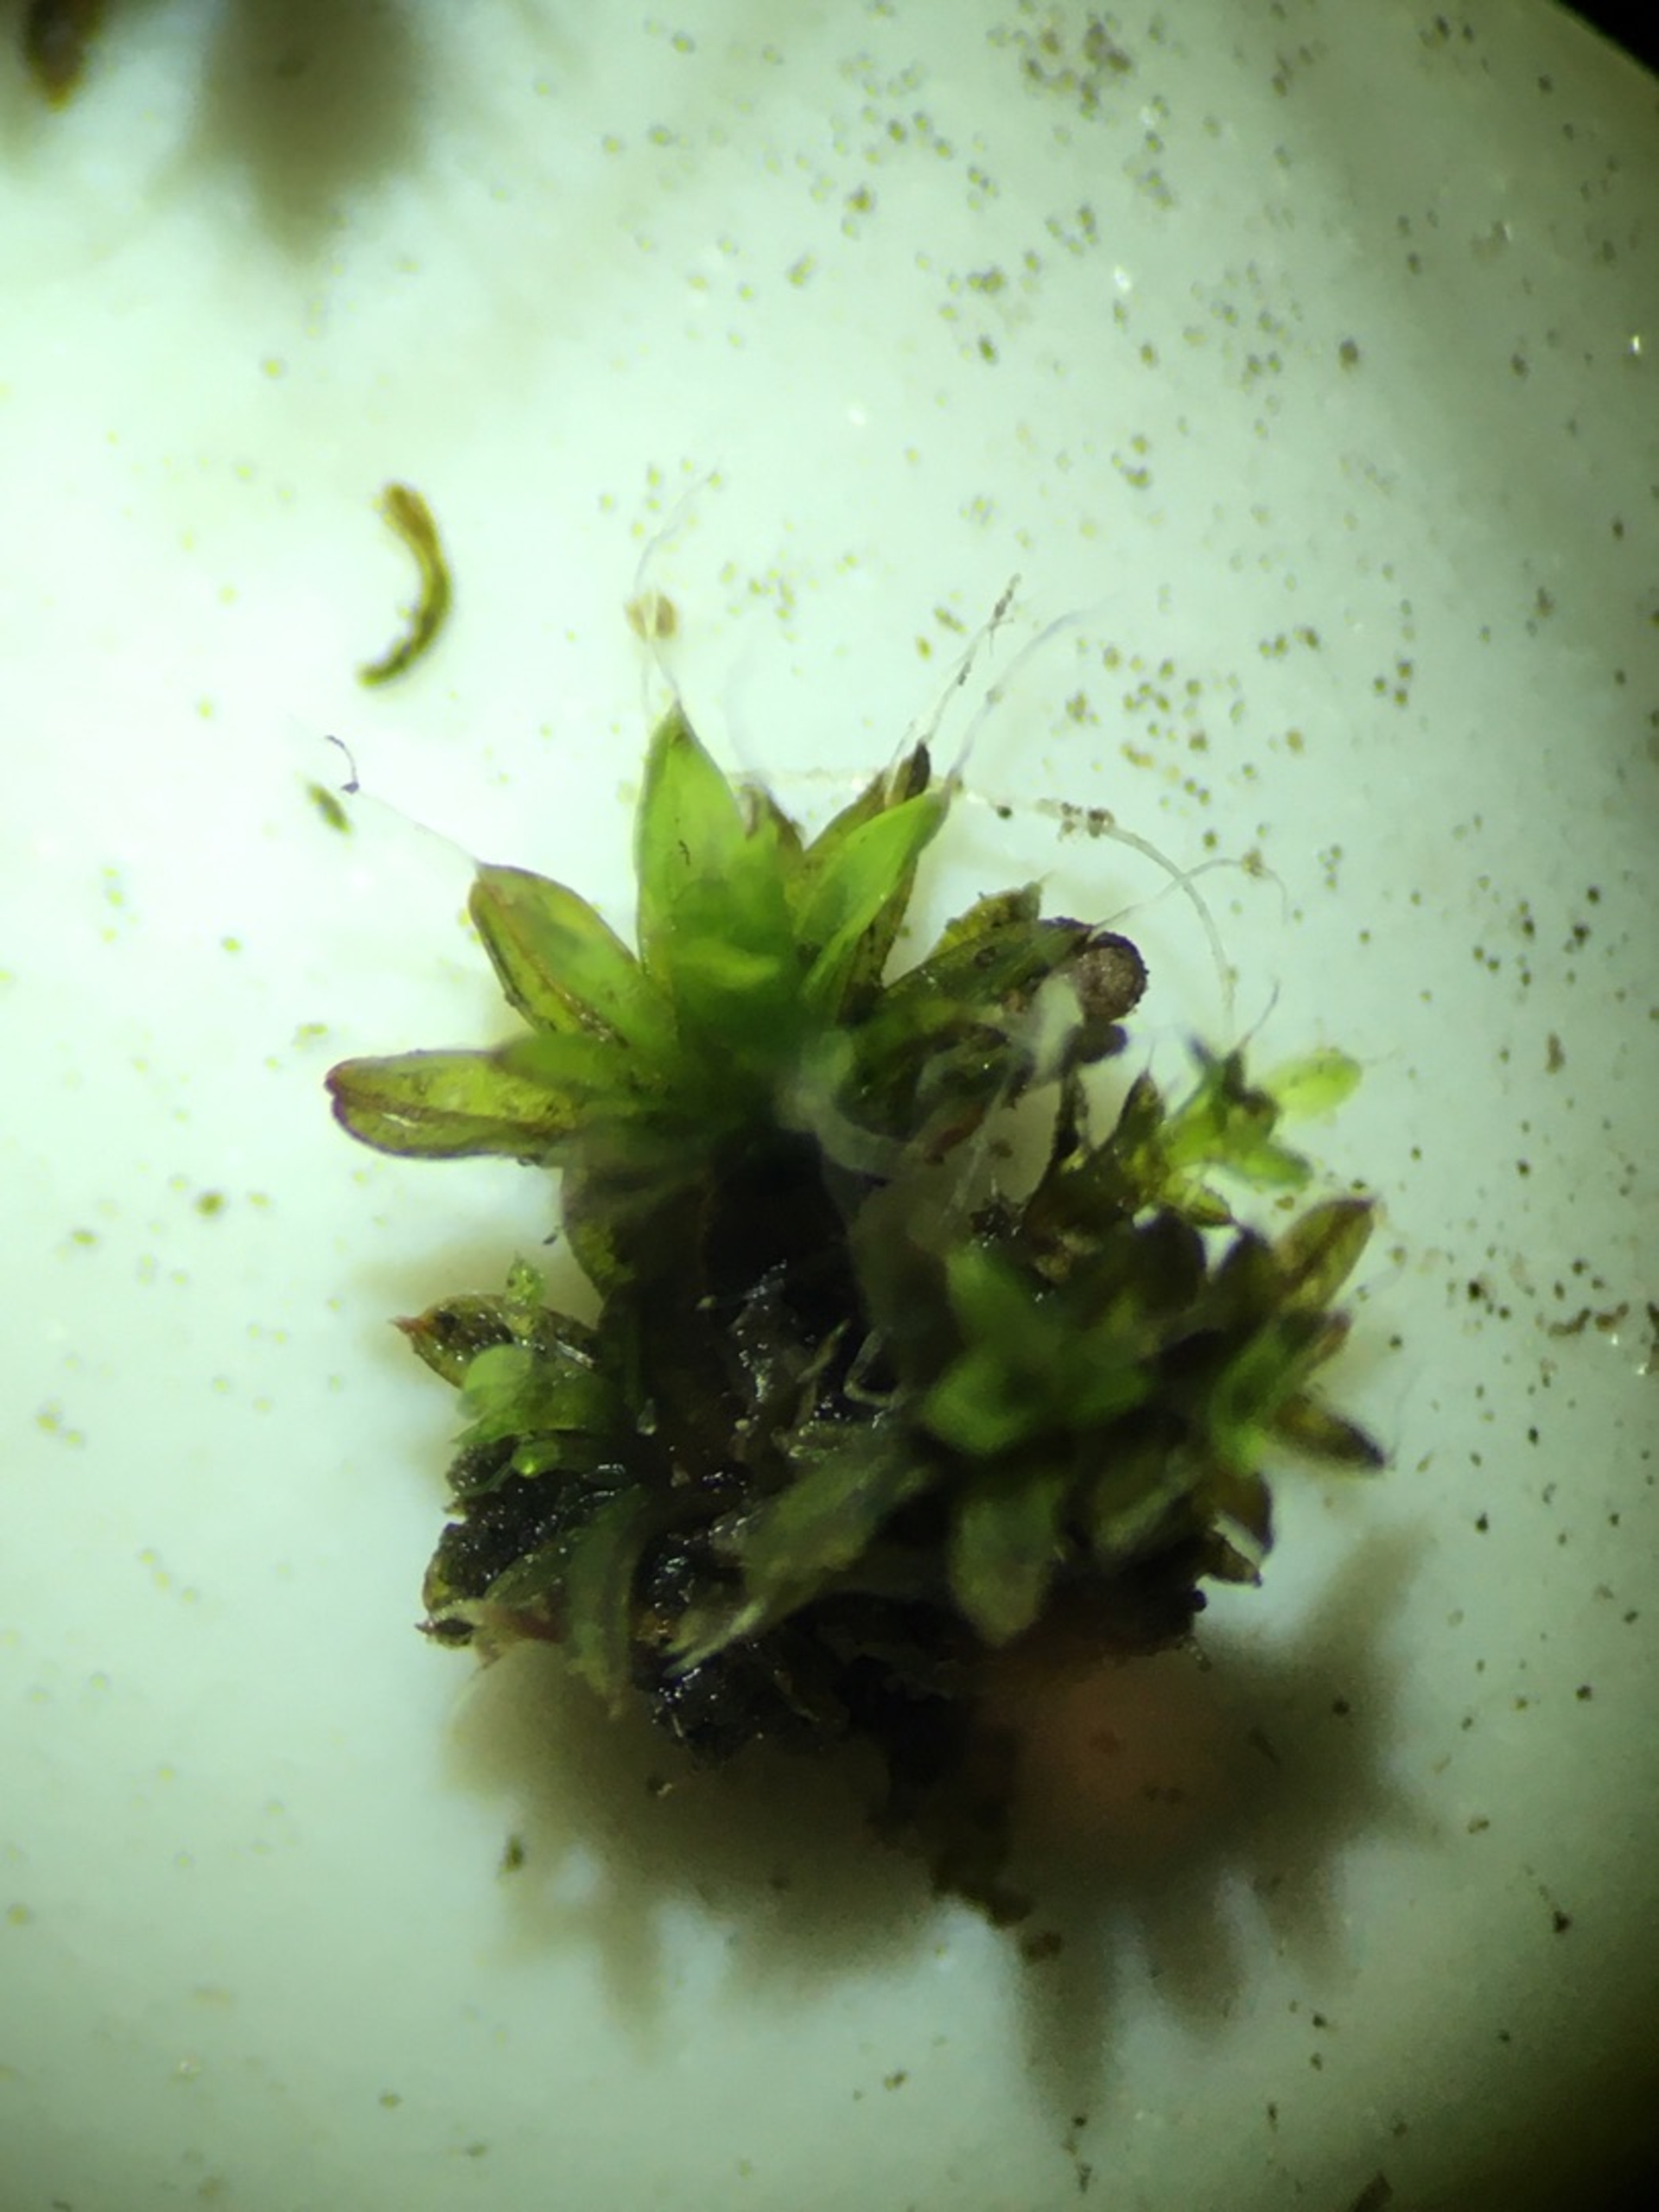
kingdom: Plantae
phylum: Bryophyta
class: Bryopsida
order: Pottiales
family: Pottiaceae
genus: Tortula
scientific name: Tortula muralis
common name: Mur-snotand
